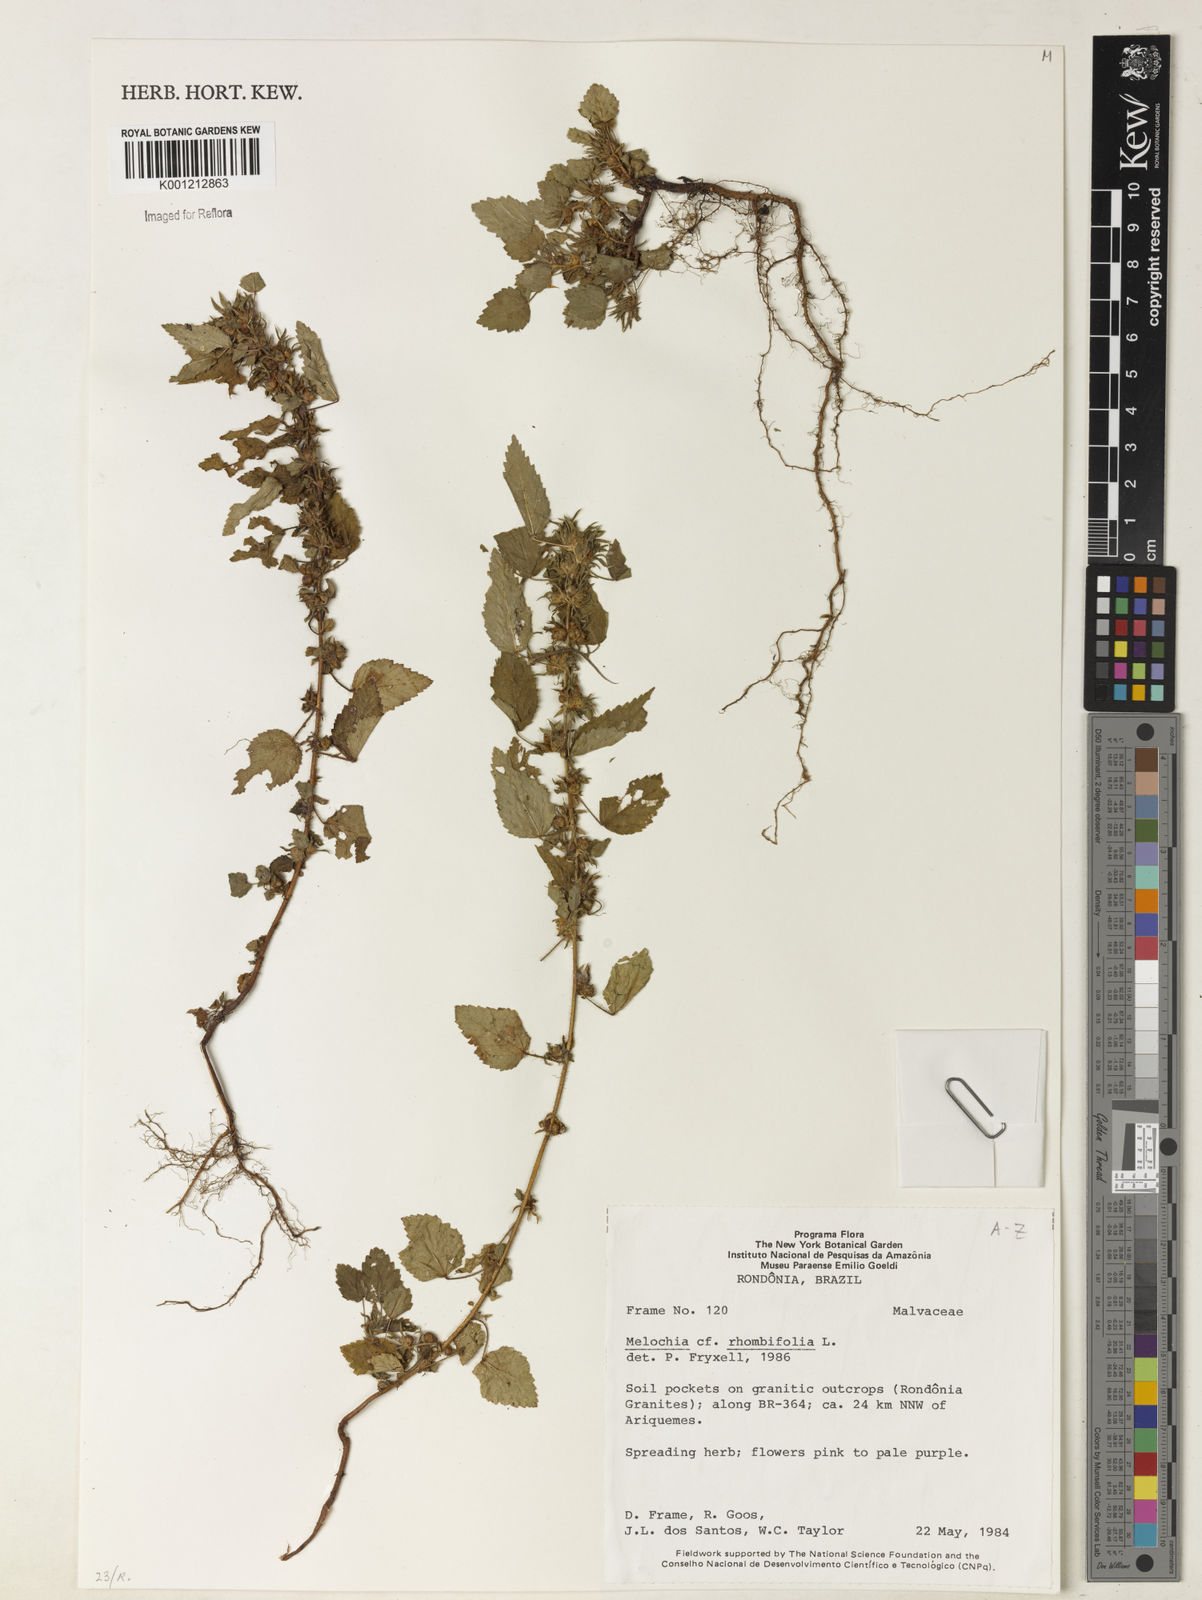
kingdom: Plantae
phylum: Tracheophyta
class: Magnoliopsida
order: Malvales
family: Malvaceae
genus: Melochia
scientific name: Melochia
